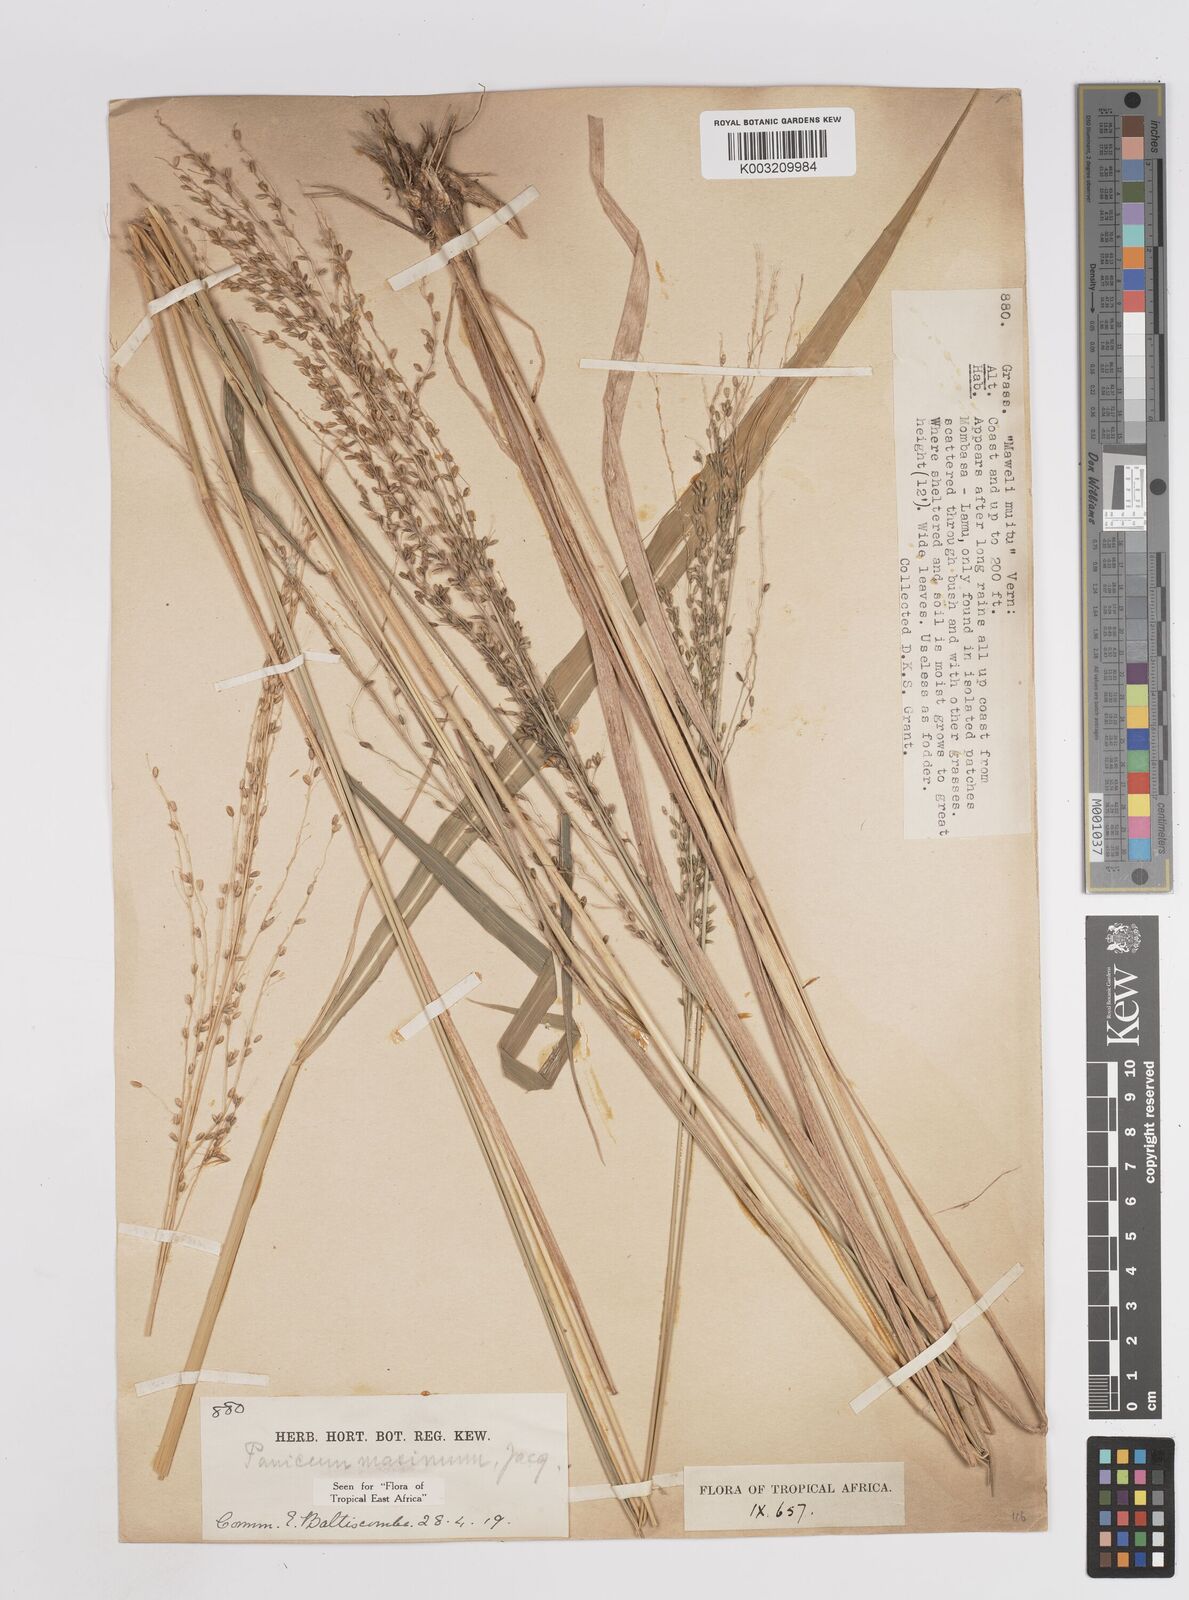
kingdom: Plantae
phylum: Tracheophyta
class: Liliopsida
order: Poales
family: Poaceae
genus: Megathyrsus
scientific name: Megathyrsus maximus
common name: Guineagrass
